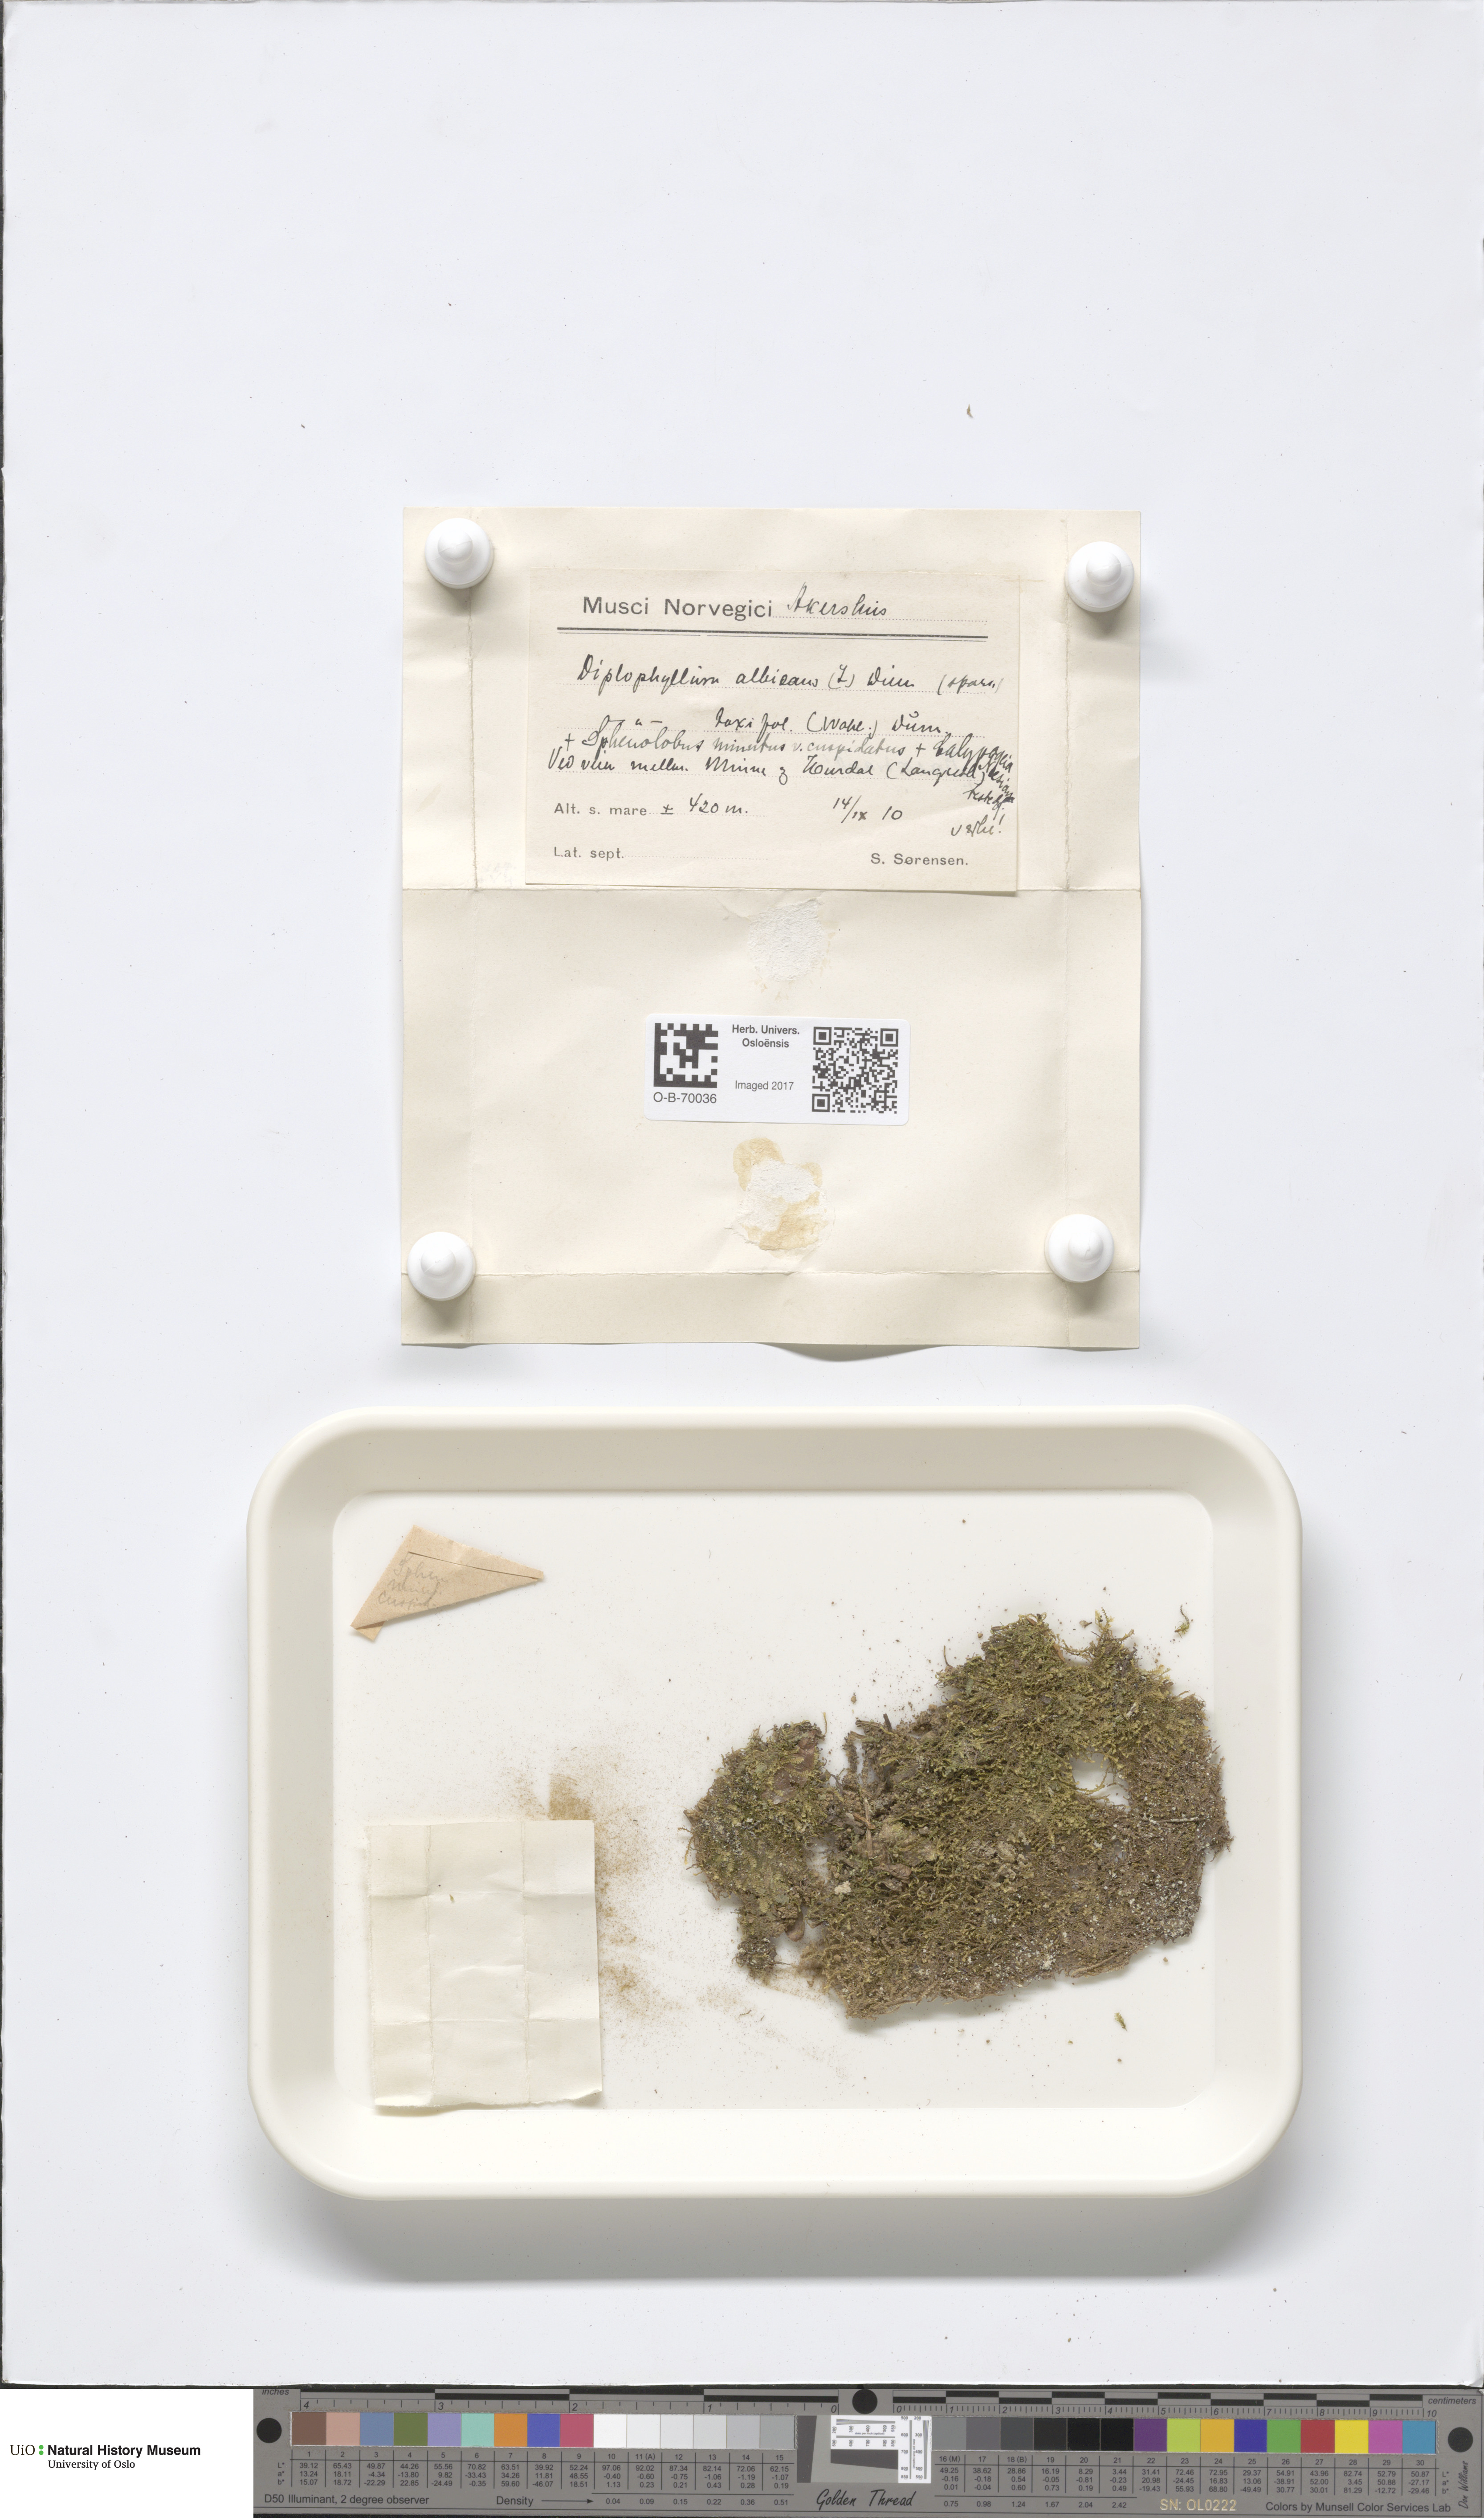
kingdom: Plantae
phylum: Marchantiophyta
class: Jungermanniopsida
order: Jungermanniales
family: Anastrophyllaceae
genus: Sphenolobus
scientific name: Sphenolobus minutus
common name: Comb notchwort
